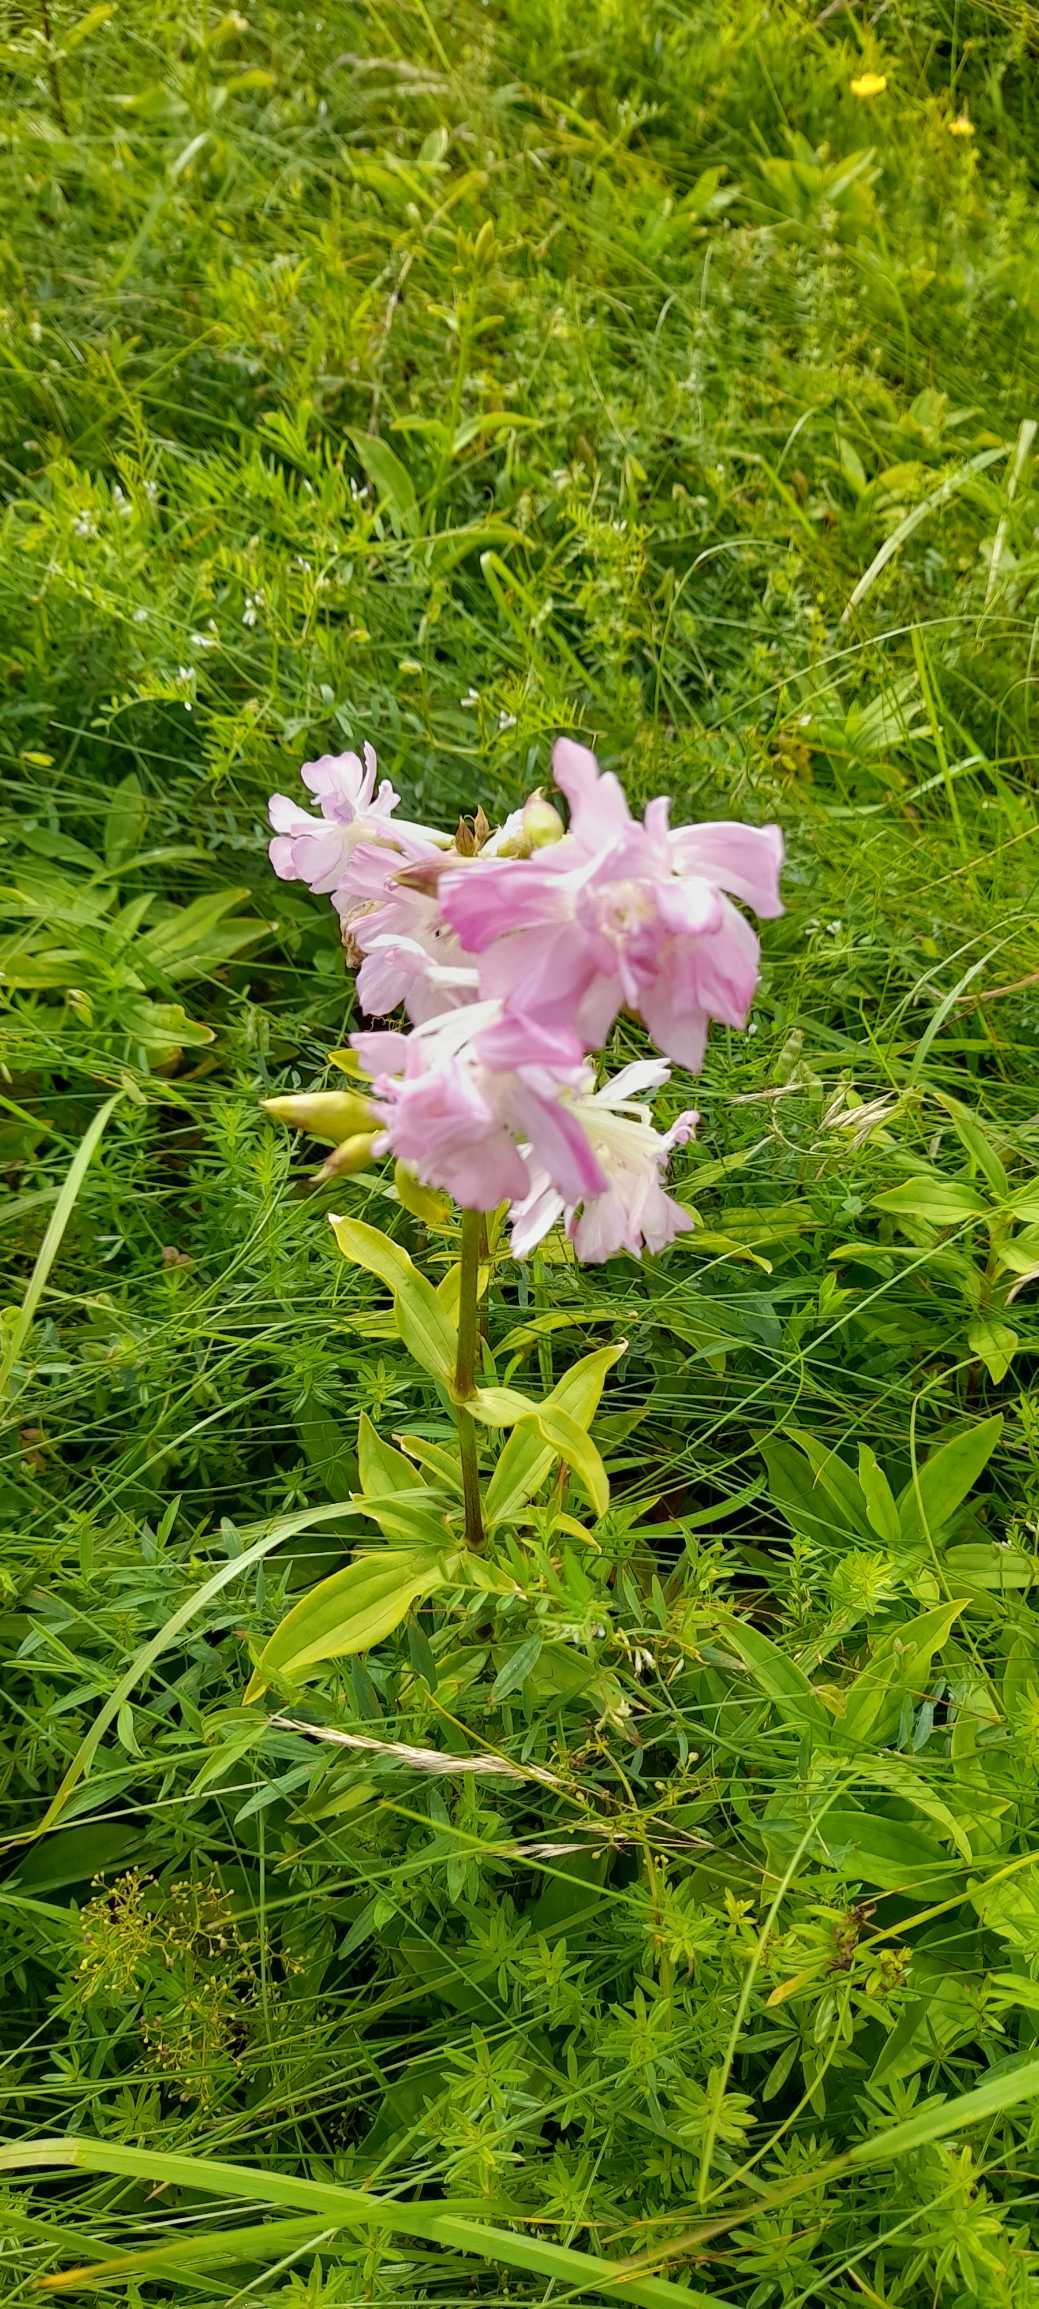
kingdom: Plantae
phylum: Tracheophyta
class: Magnoliopsida
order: Caryophyllales
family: Caryophyllaceae
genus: Saponaria
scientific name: Saponaria officinalis
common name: Sæbeurt
